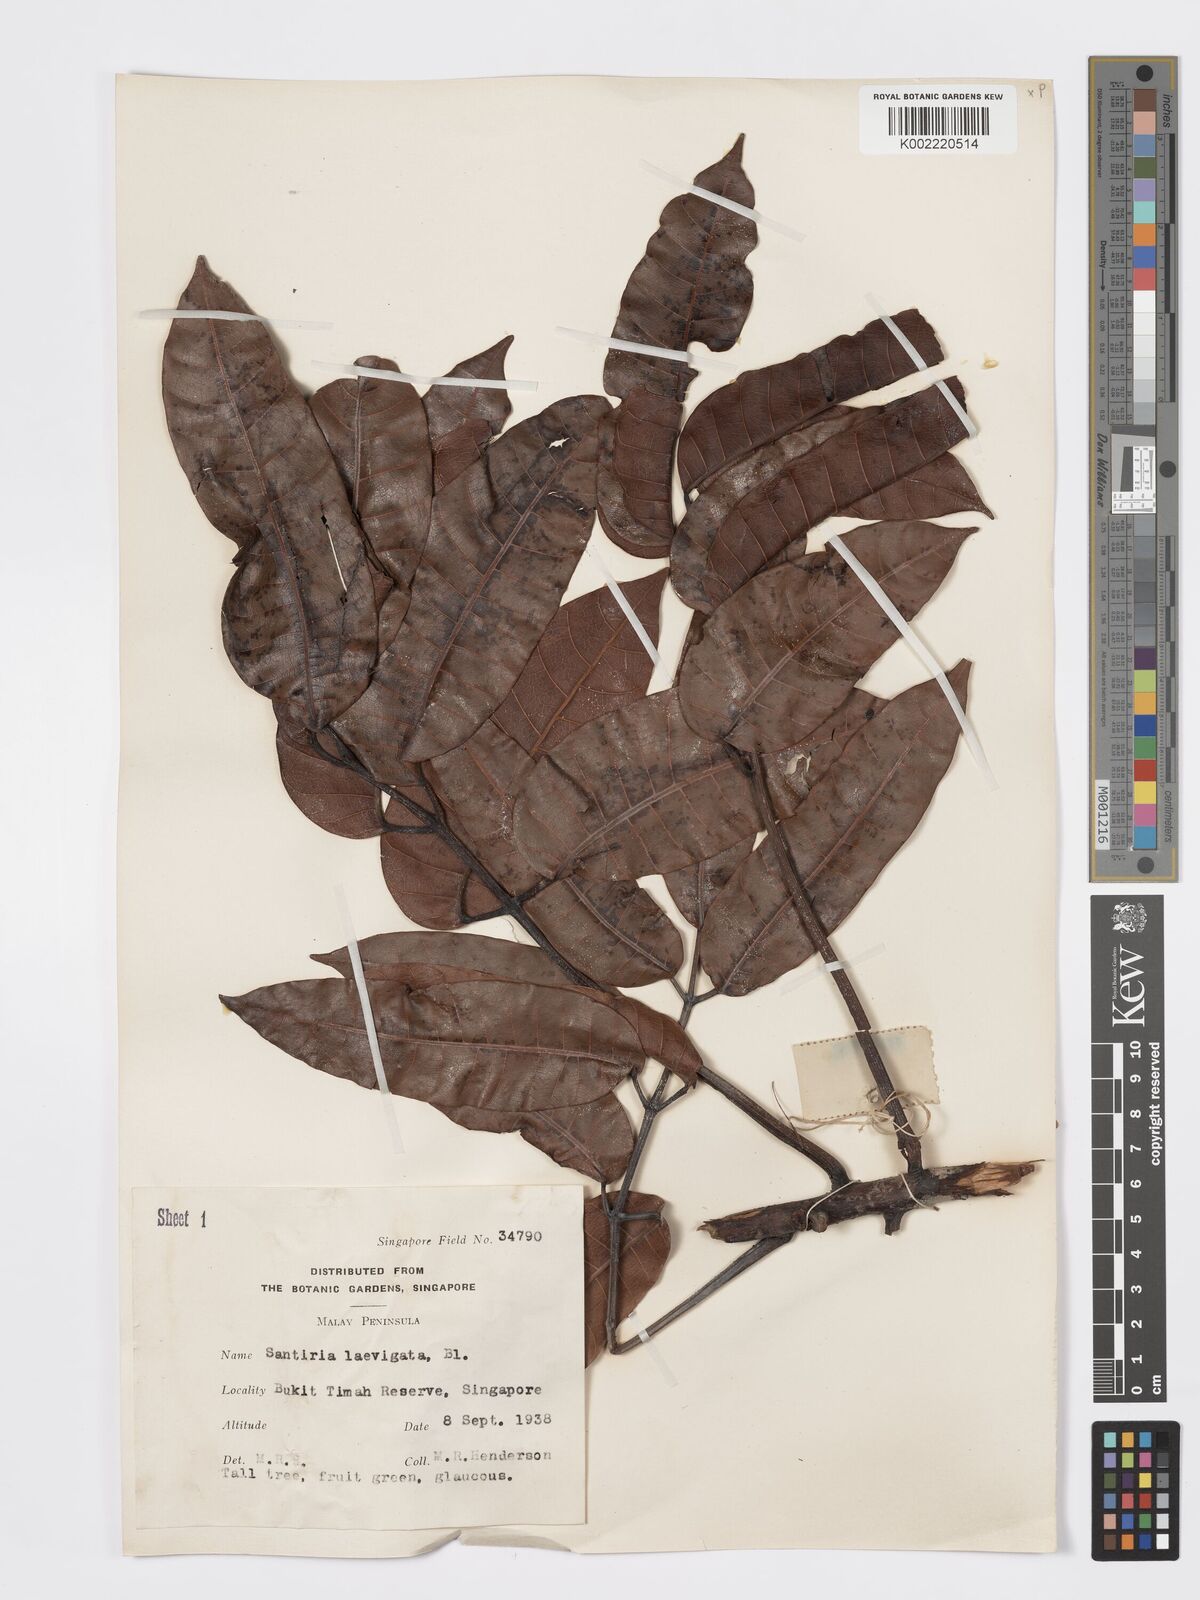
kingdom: Plantae
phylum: Tracheophyta
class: Magnoliopsida
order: Sapindales
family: Burseraceae
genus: Santiria
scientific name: Santiria laevigata
